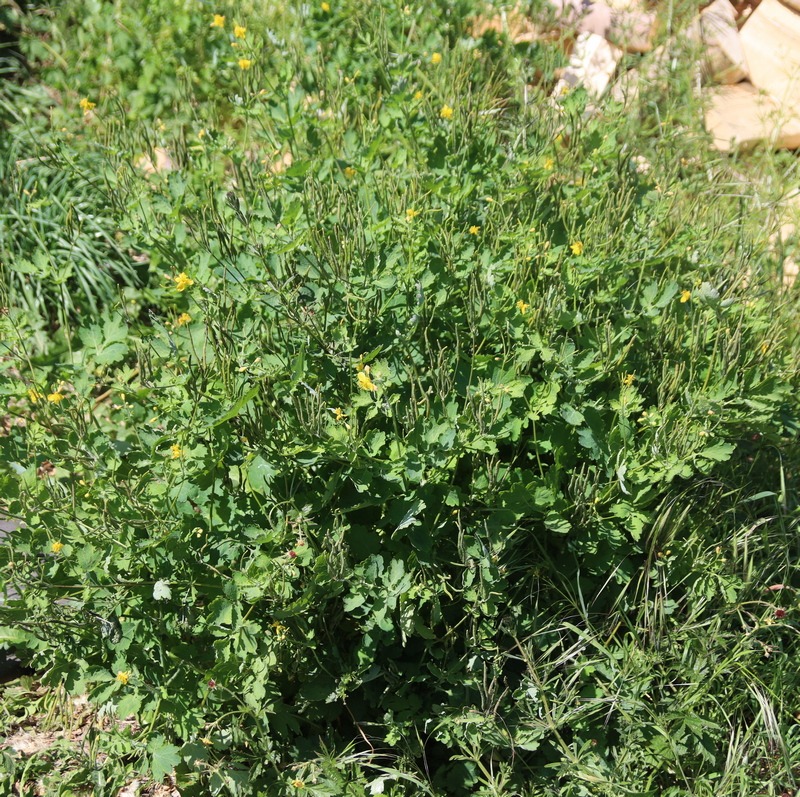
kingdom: Plantae
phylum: Tracheophyta
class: Magnoliopsida
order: Ranunculales
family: Papaveraceae
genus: Chelidonium
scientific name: Chelidonium majus
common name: Svaleurt
